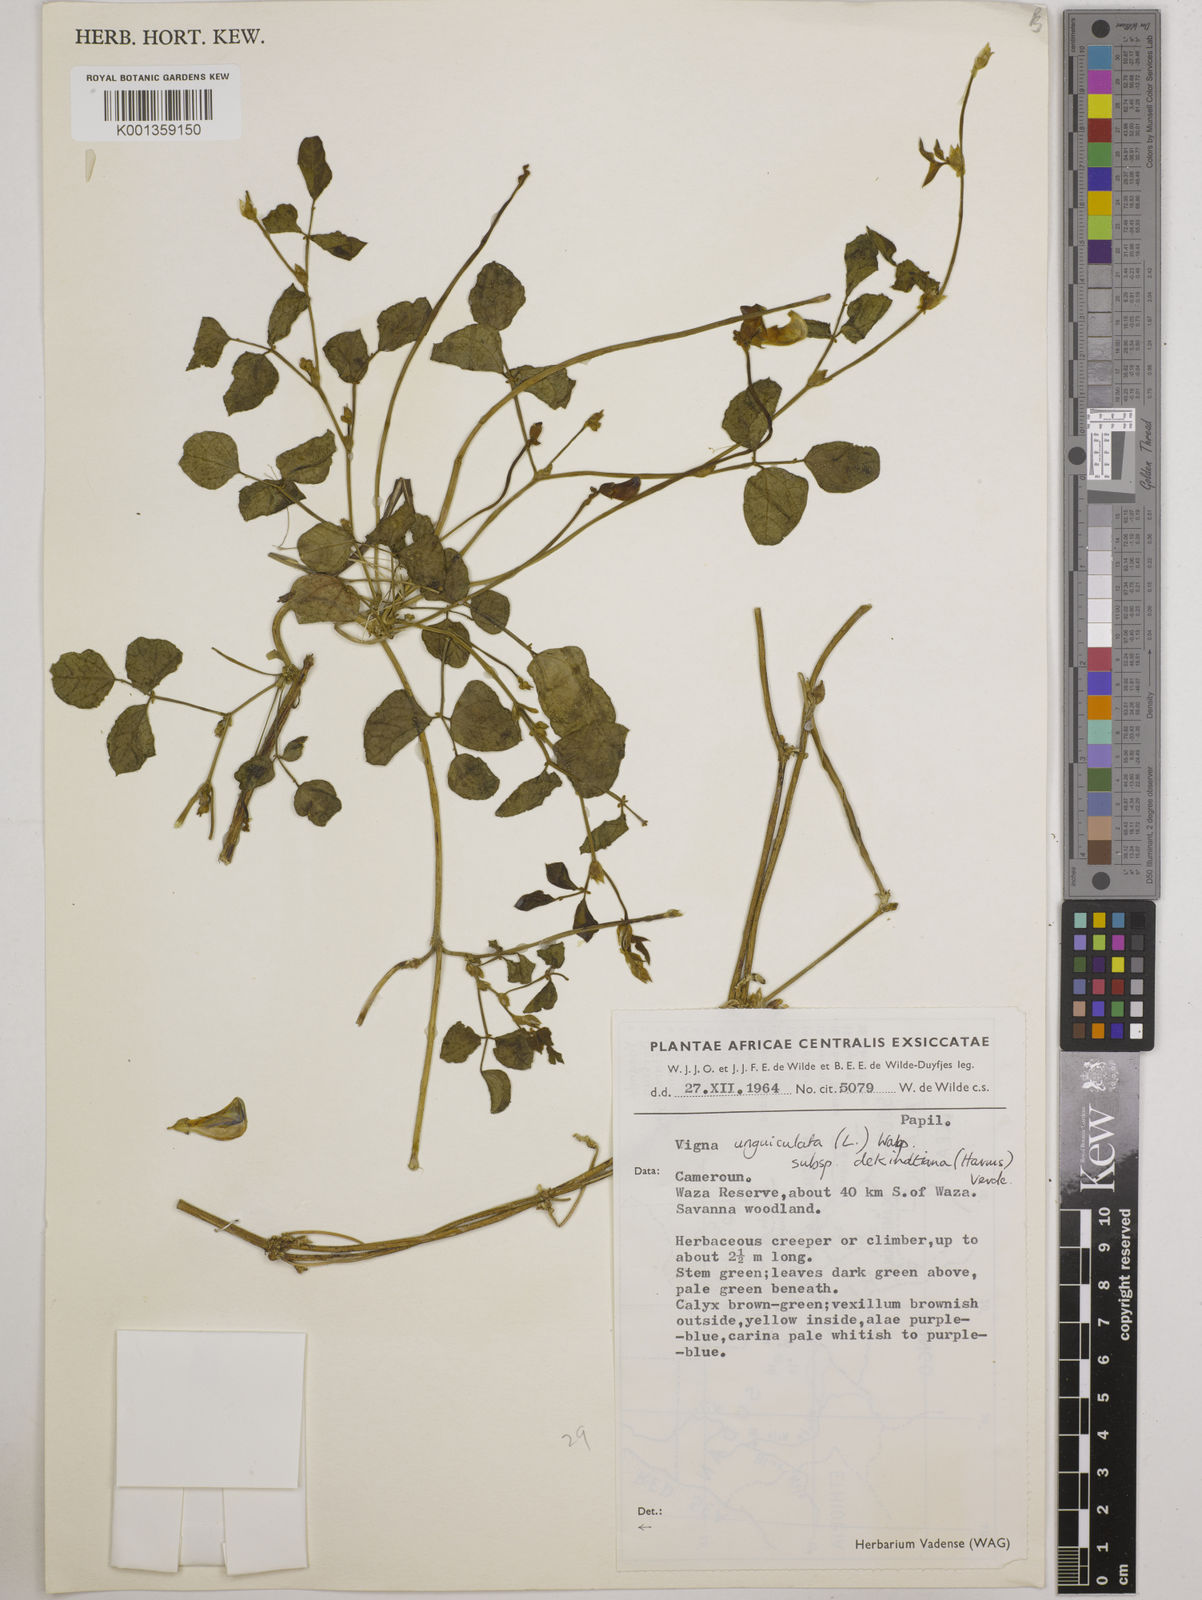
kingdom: Plantae
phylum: Tracheophyta
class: Magnoliopsida
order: Fabales
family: Fabaceae
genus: Vigna
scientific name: Vigna
